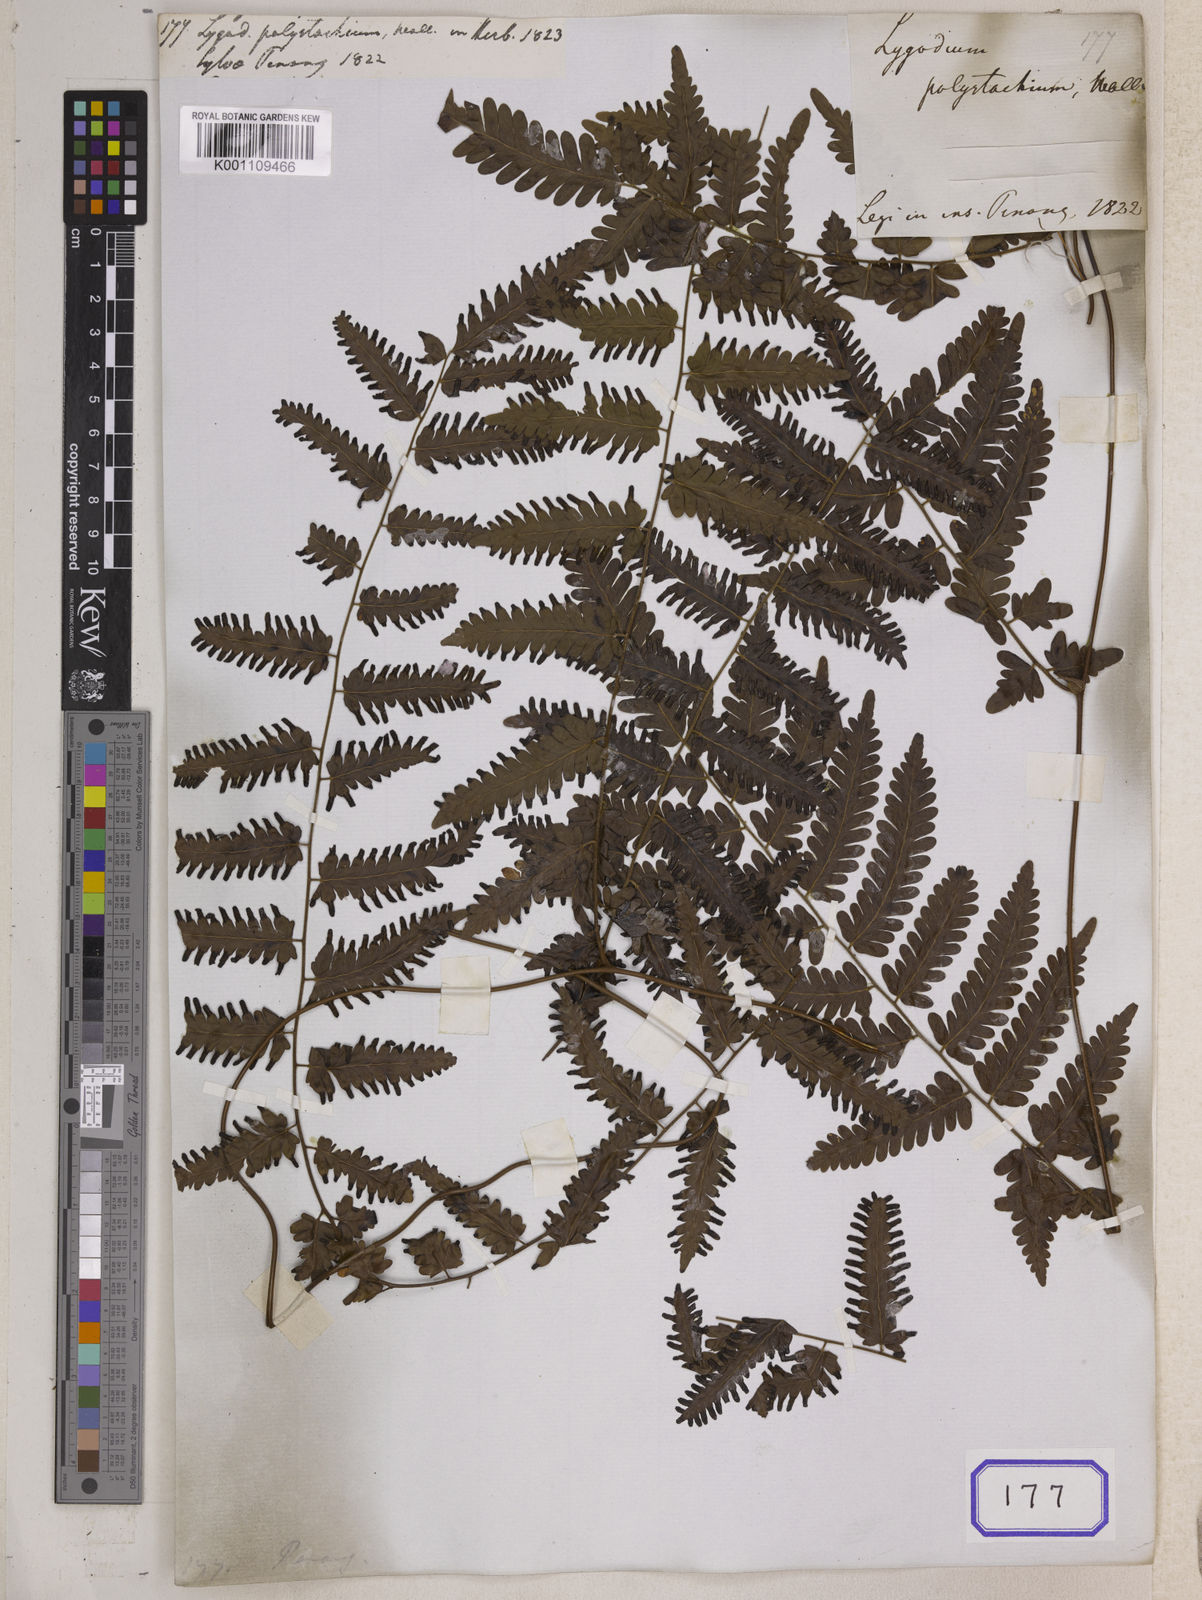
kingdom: Plantae
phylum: Tracheophyta
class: Polypodiopsida
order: Schizaeales
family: Lygodiaceae
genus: Lygodium
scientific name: Lygodium polystachyum
